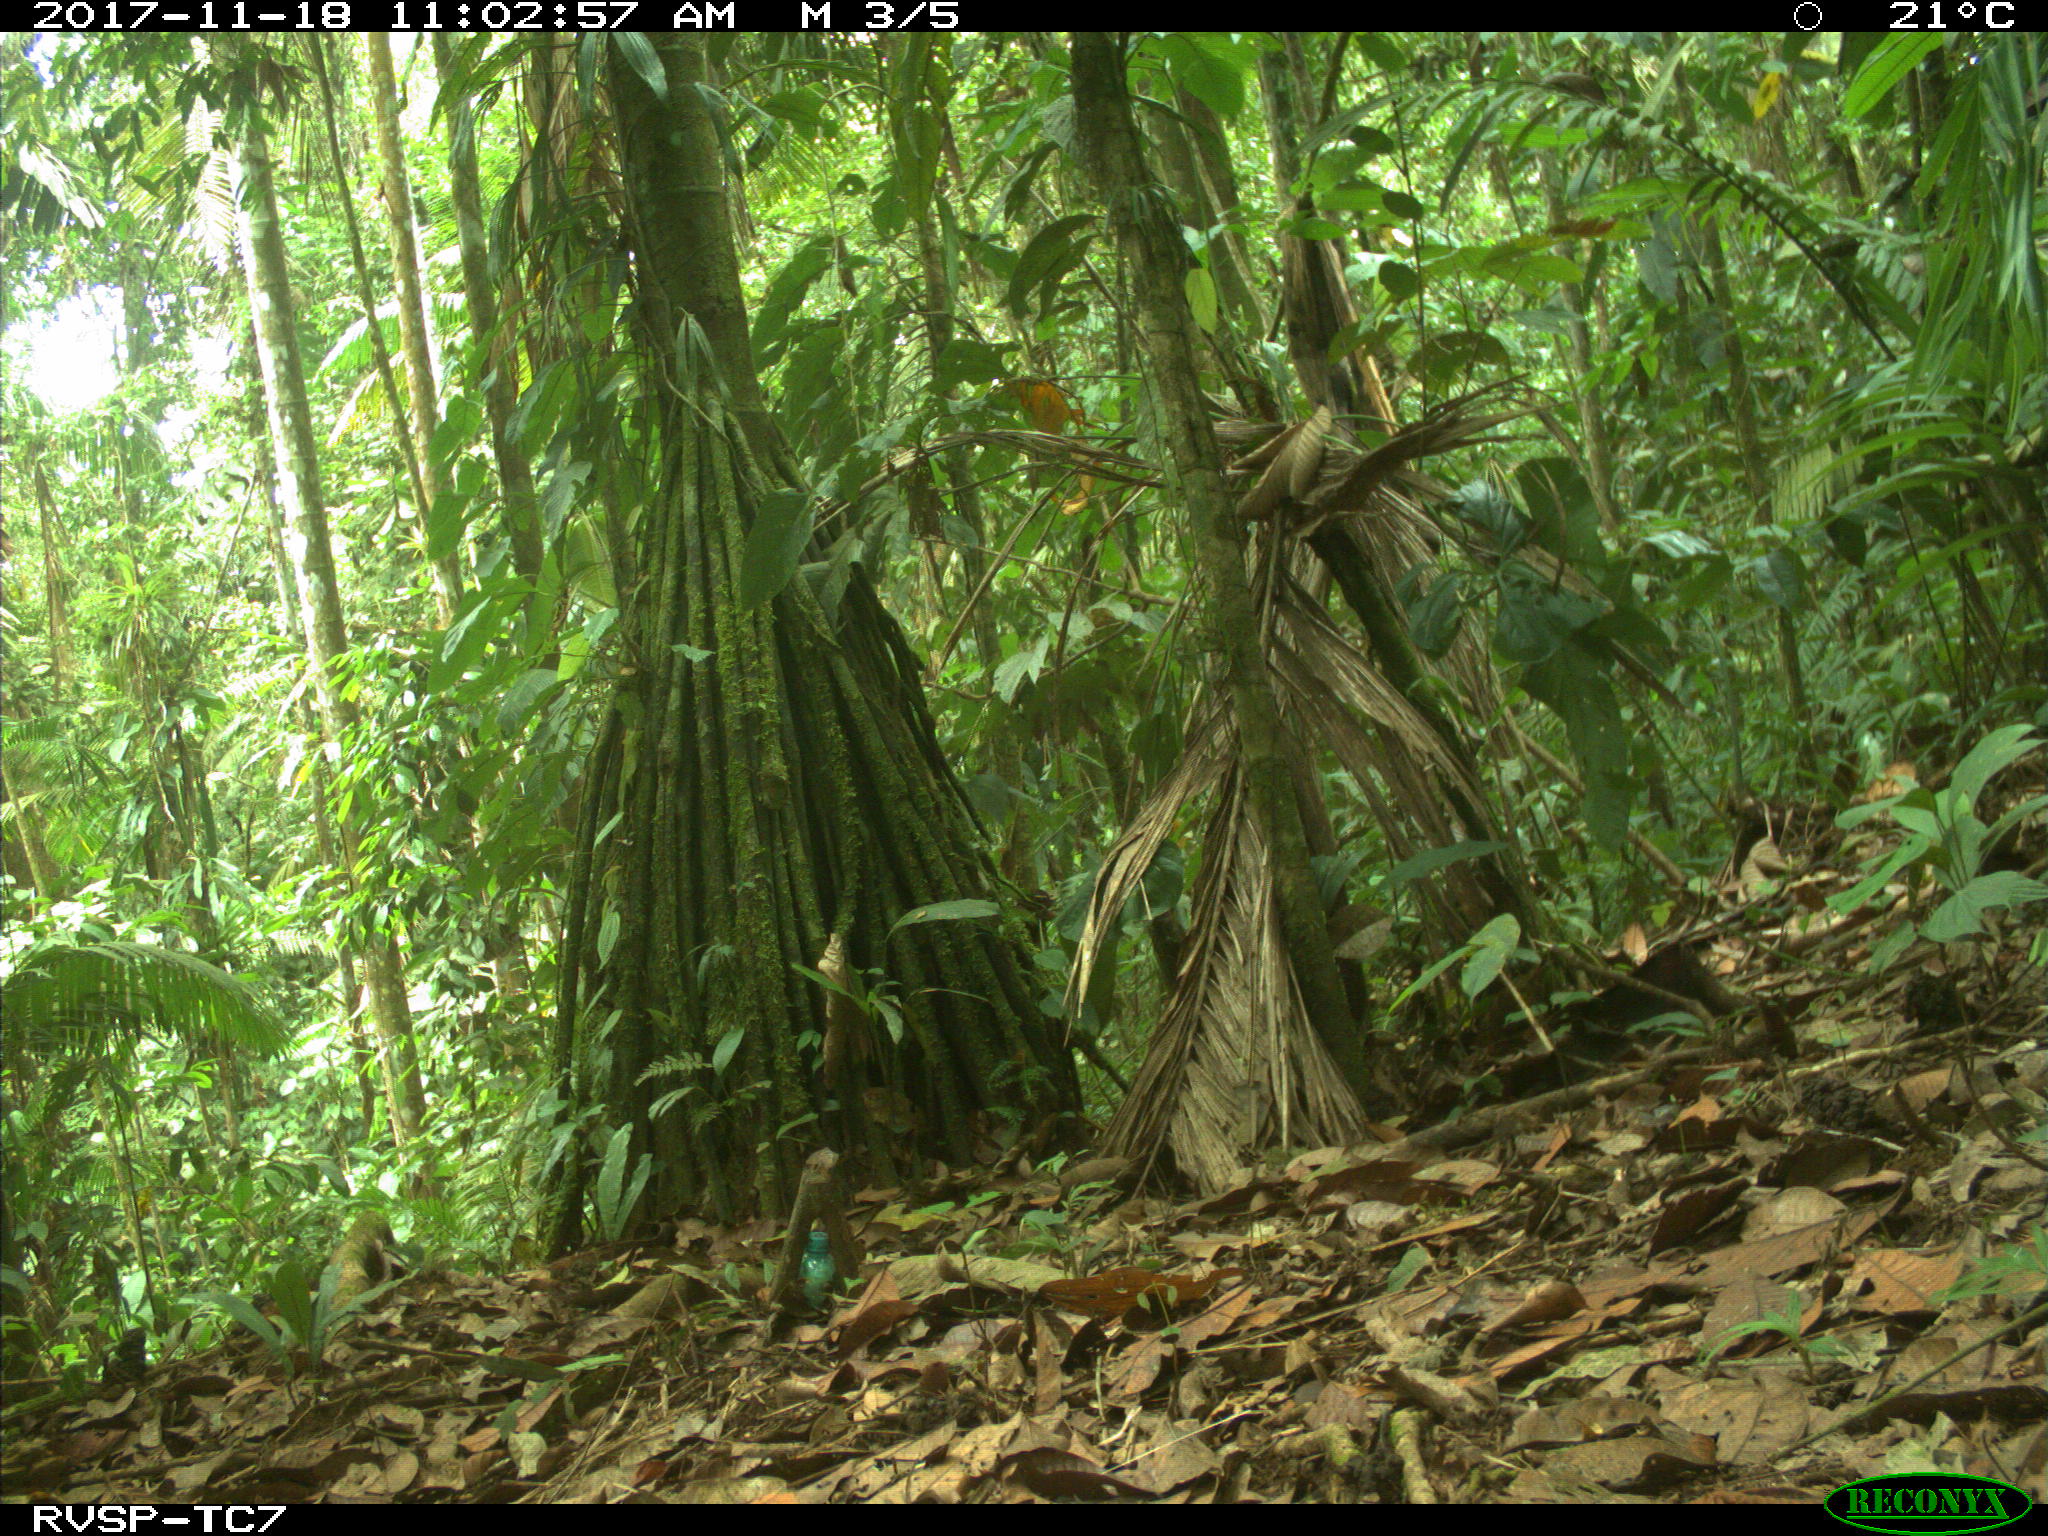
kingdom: Animalia
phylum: Chordata
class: Mammalia
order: Rodentia
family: Dasyproctidae
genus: Dasyprocta
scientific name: Dasyprocta punctata
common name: Central american agouti
